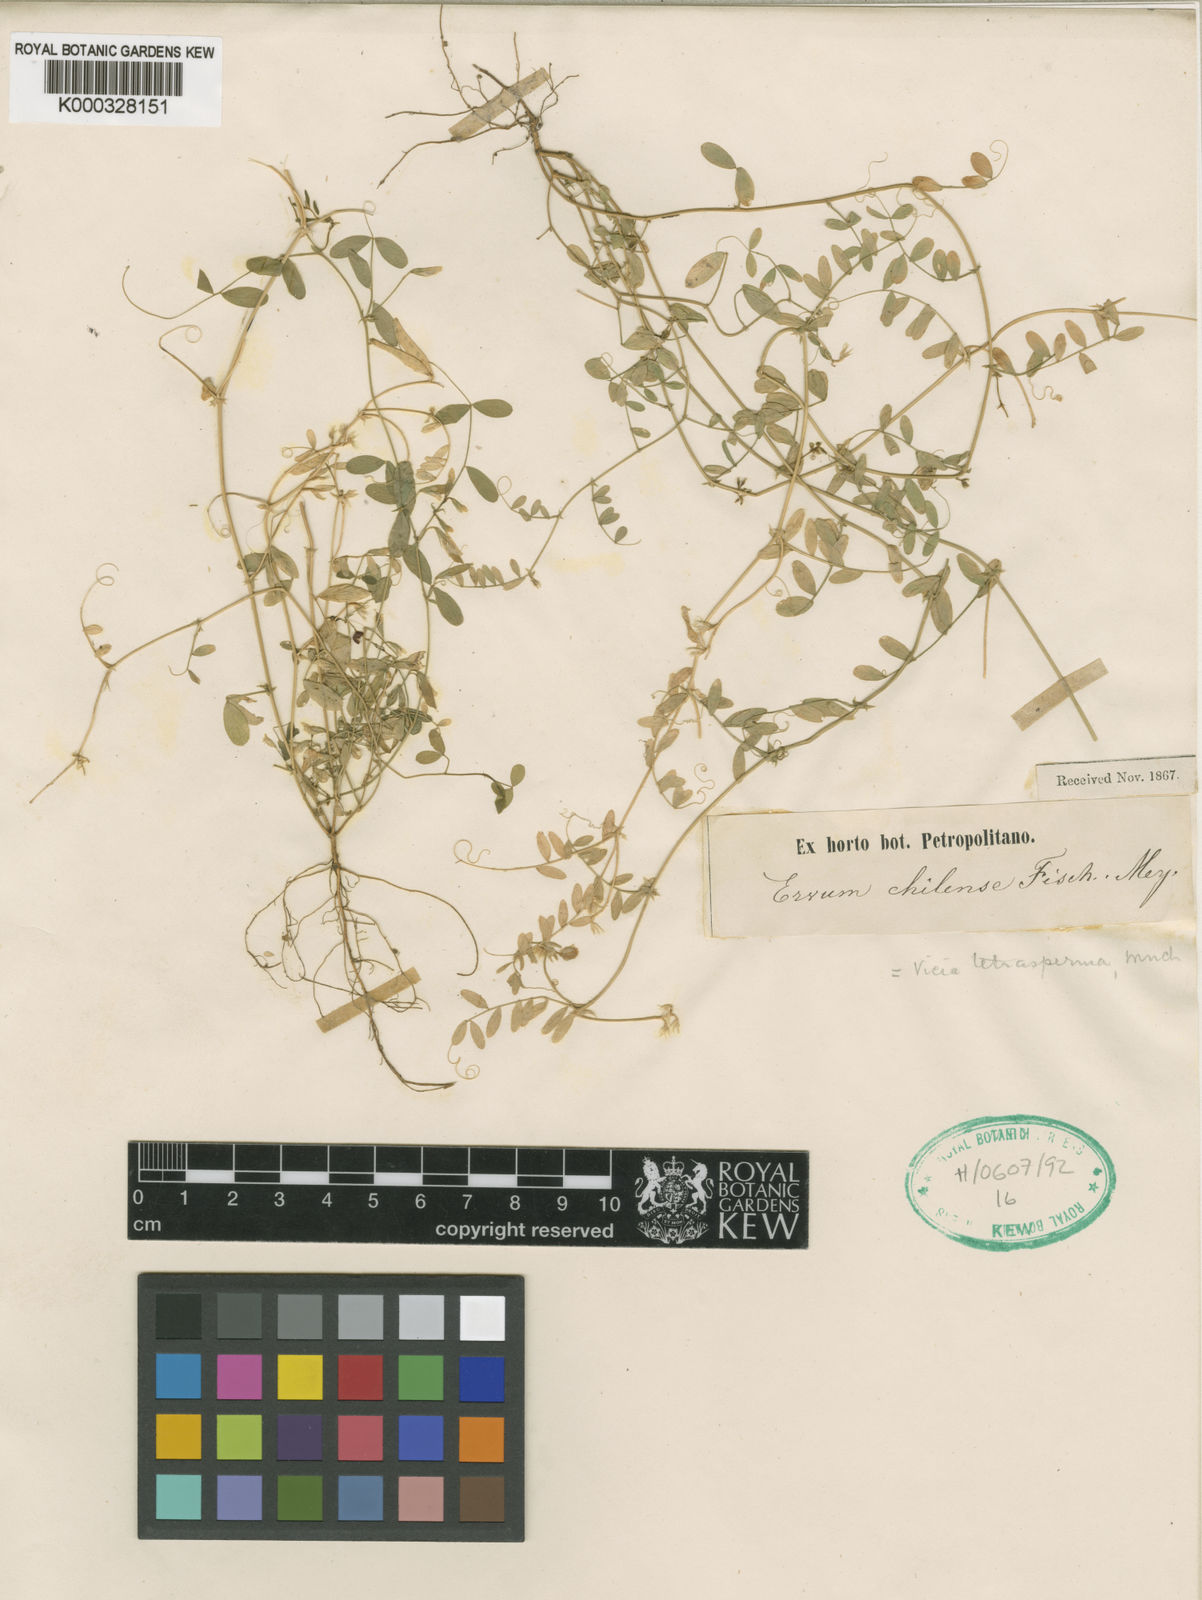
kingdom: Plantae
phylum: Tracheophyta
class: Magnoliopsida
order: Fabales
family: Fabaceae
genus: Vicia
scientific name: Vicia
